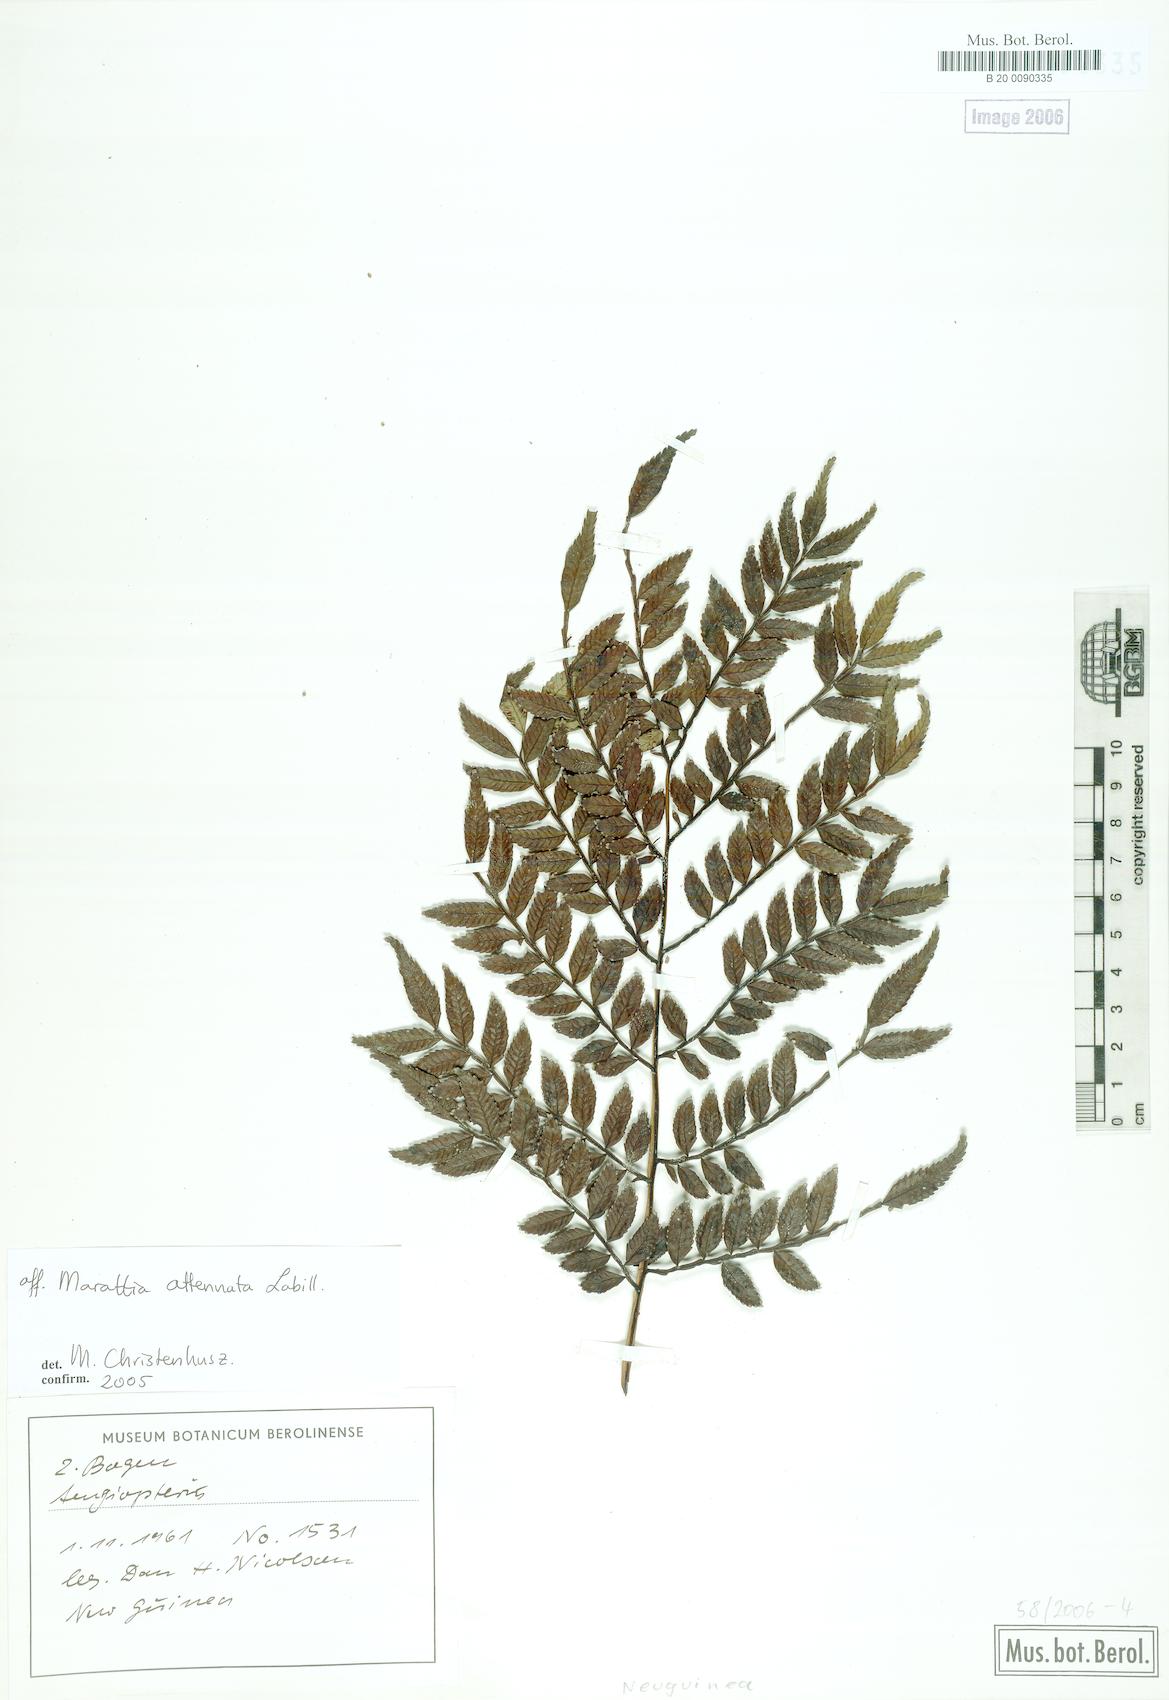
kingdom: Plantae
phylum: Tracheophyta
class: Polypodiopsida
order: Marattiales
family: Marattiaceae
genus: Ptisana
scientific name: Ptisana attenuata
